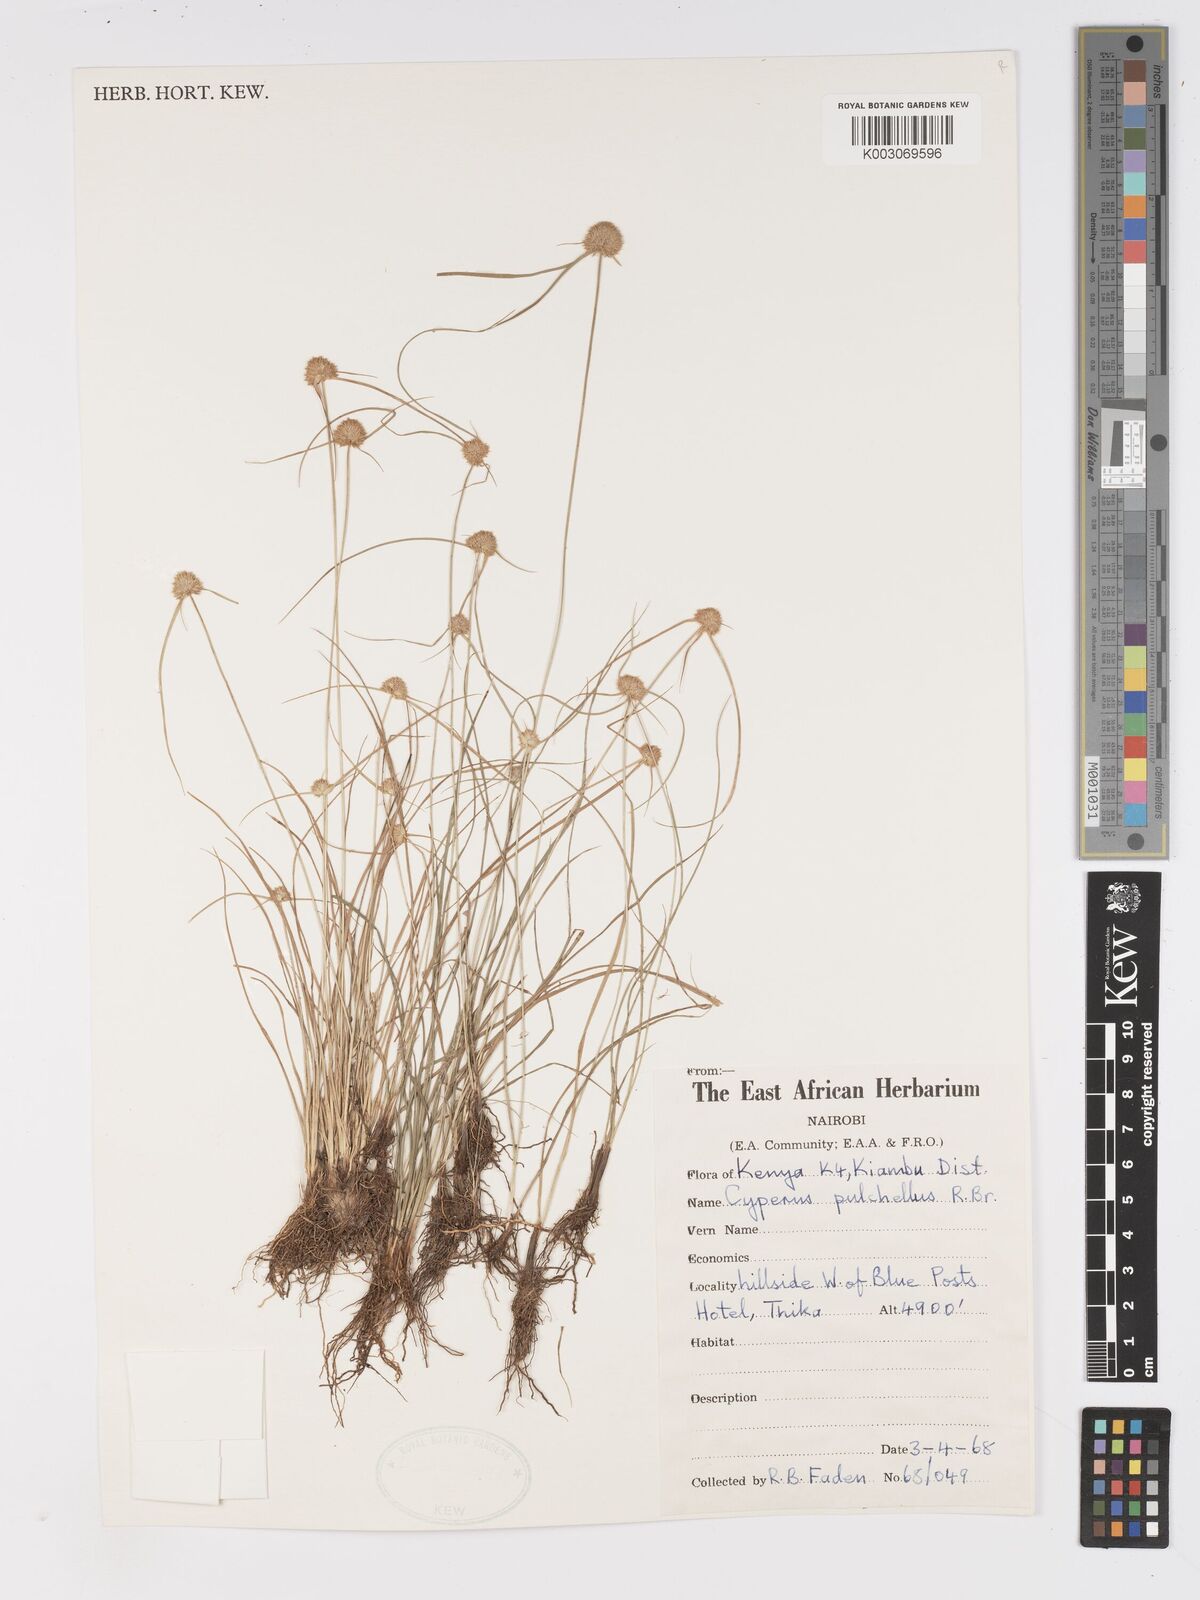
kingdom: Plantae
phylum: Tracheophyta
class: Liliopsida
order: Poales
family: Cyperaceae
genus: Cyperus
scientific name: Cyperus pulchellus
